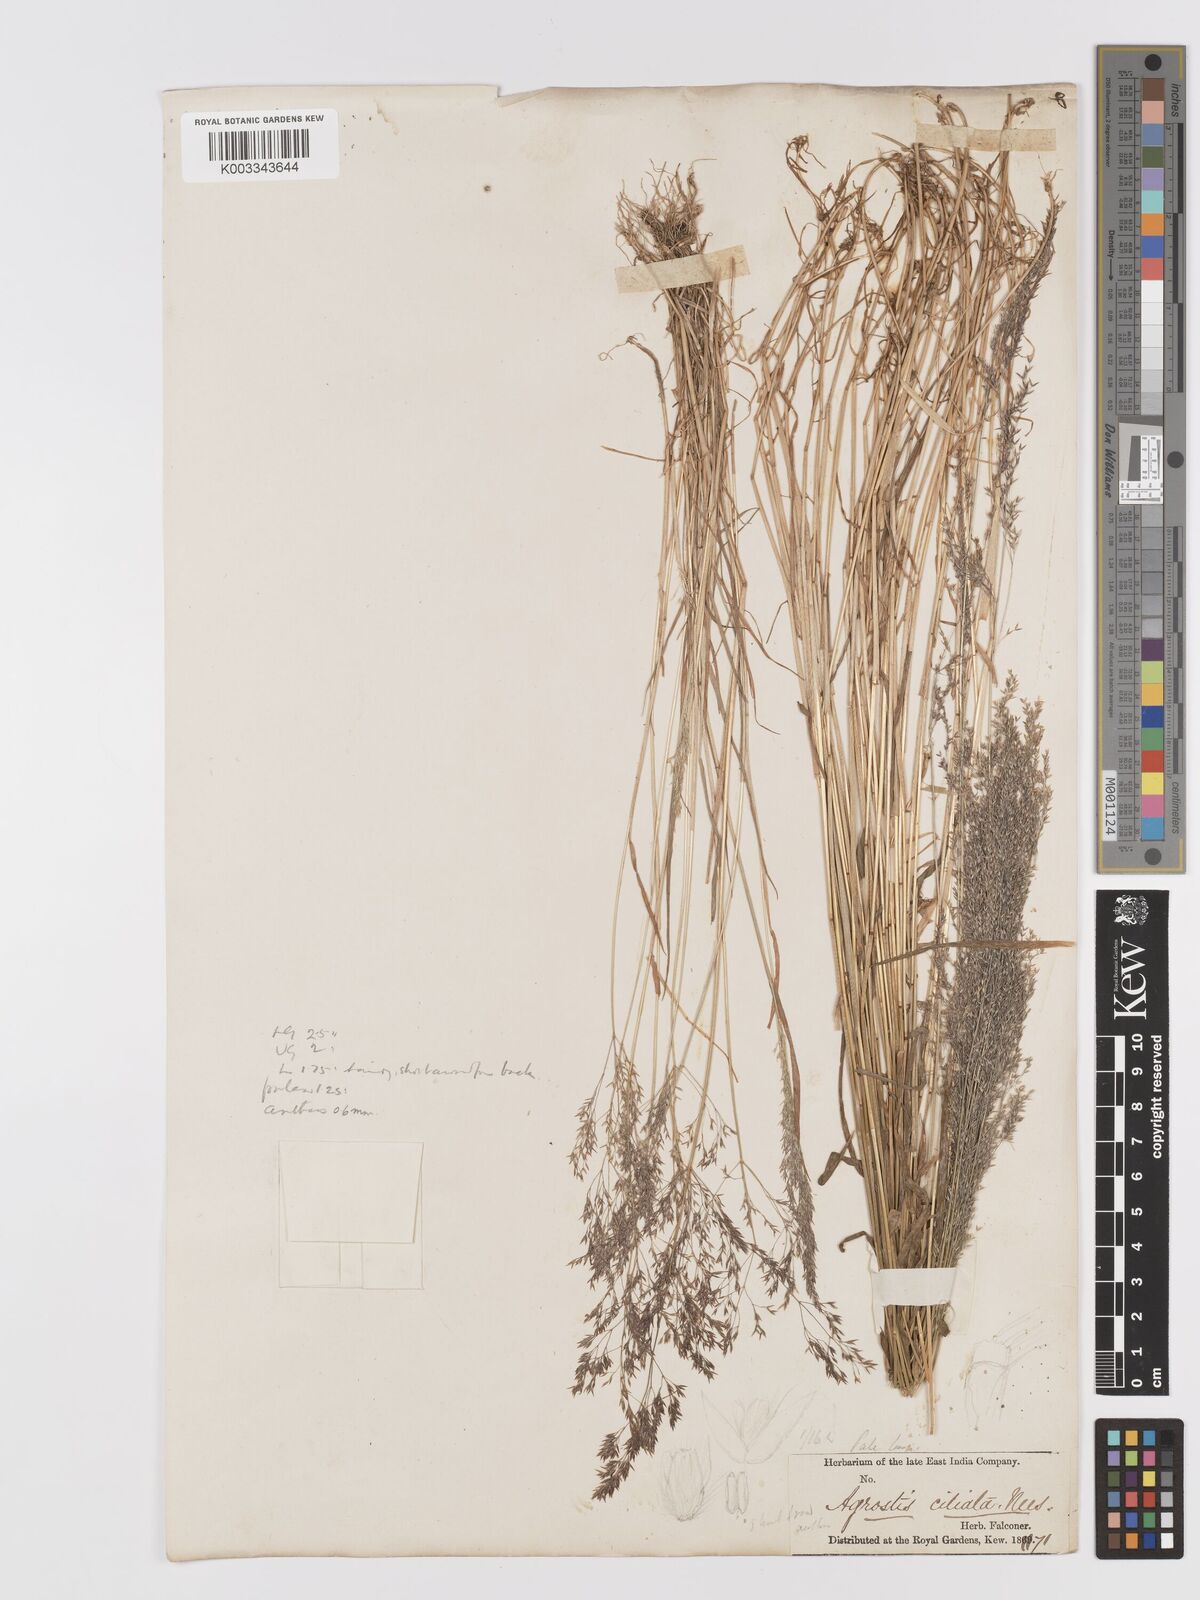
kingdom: Plantae
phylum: Tracheophyta
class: Liliopsida
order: Poales
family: Poaceae
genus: Agrostis
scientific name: Agrostis munroana
